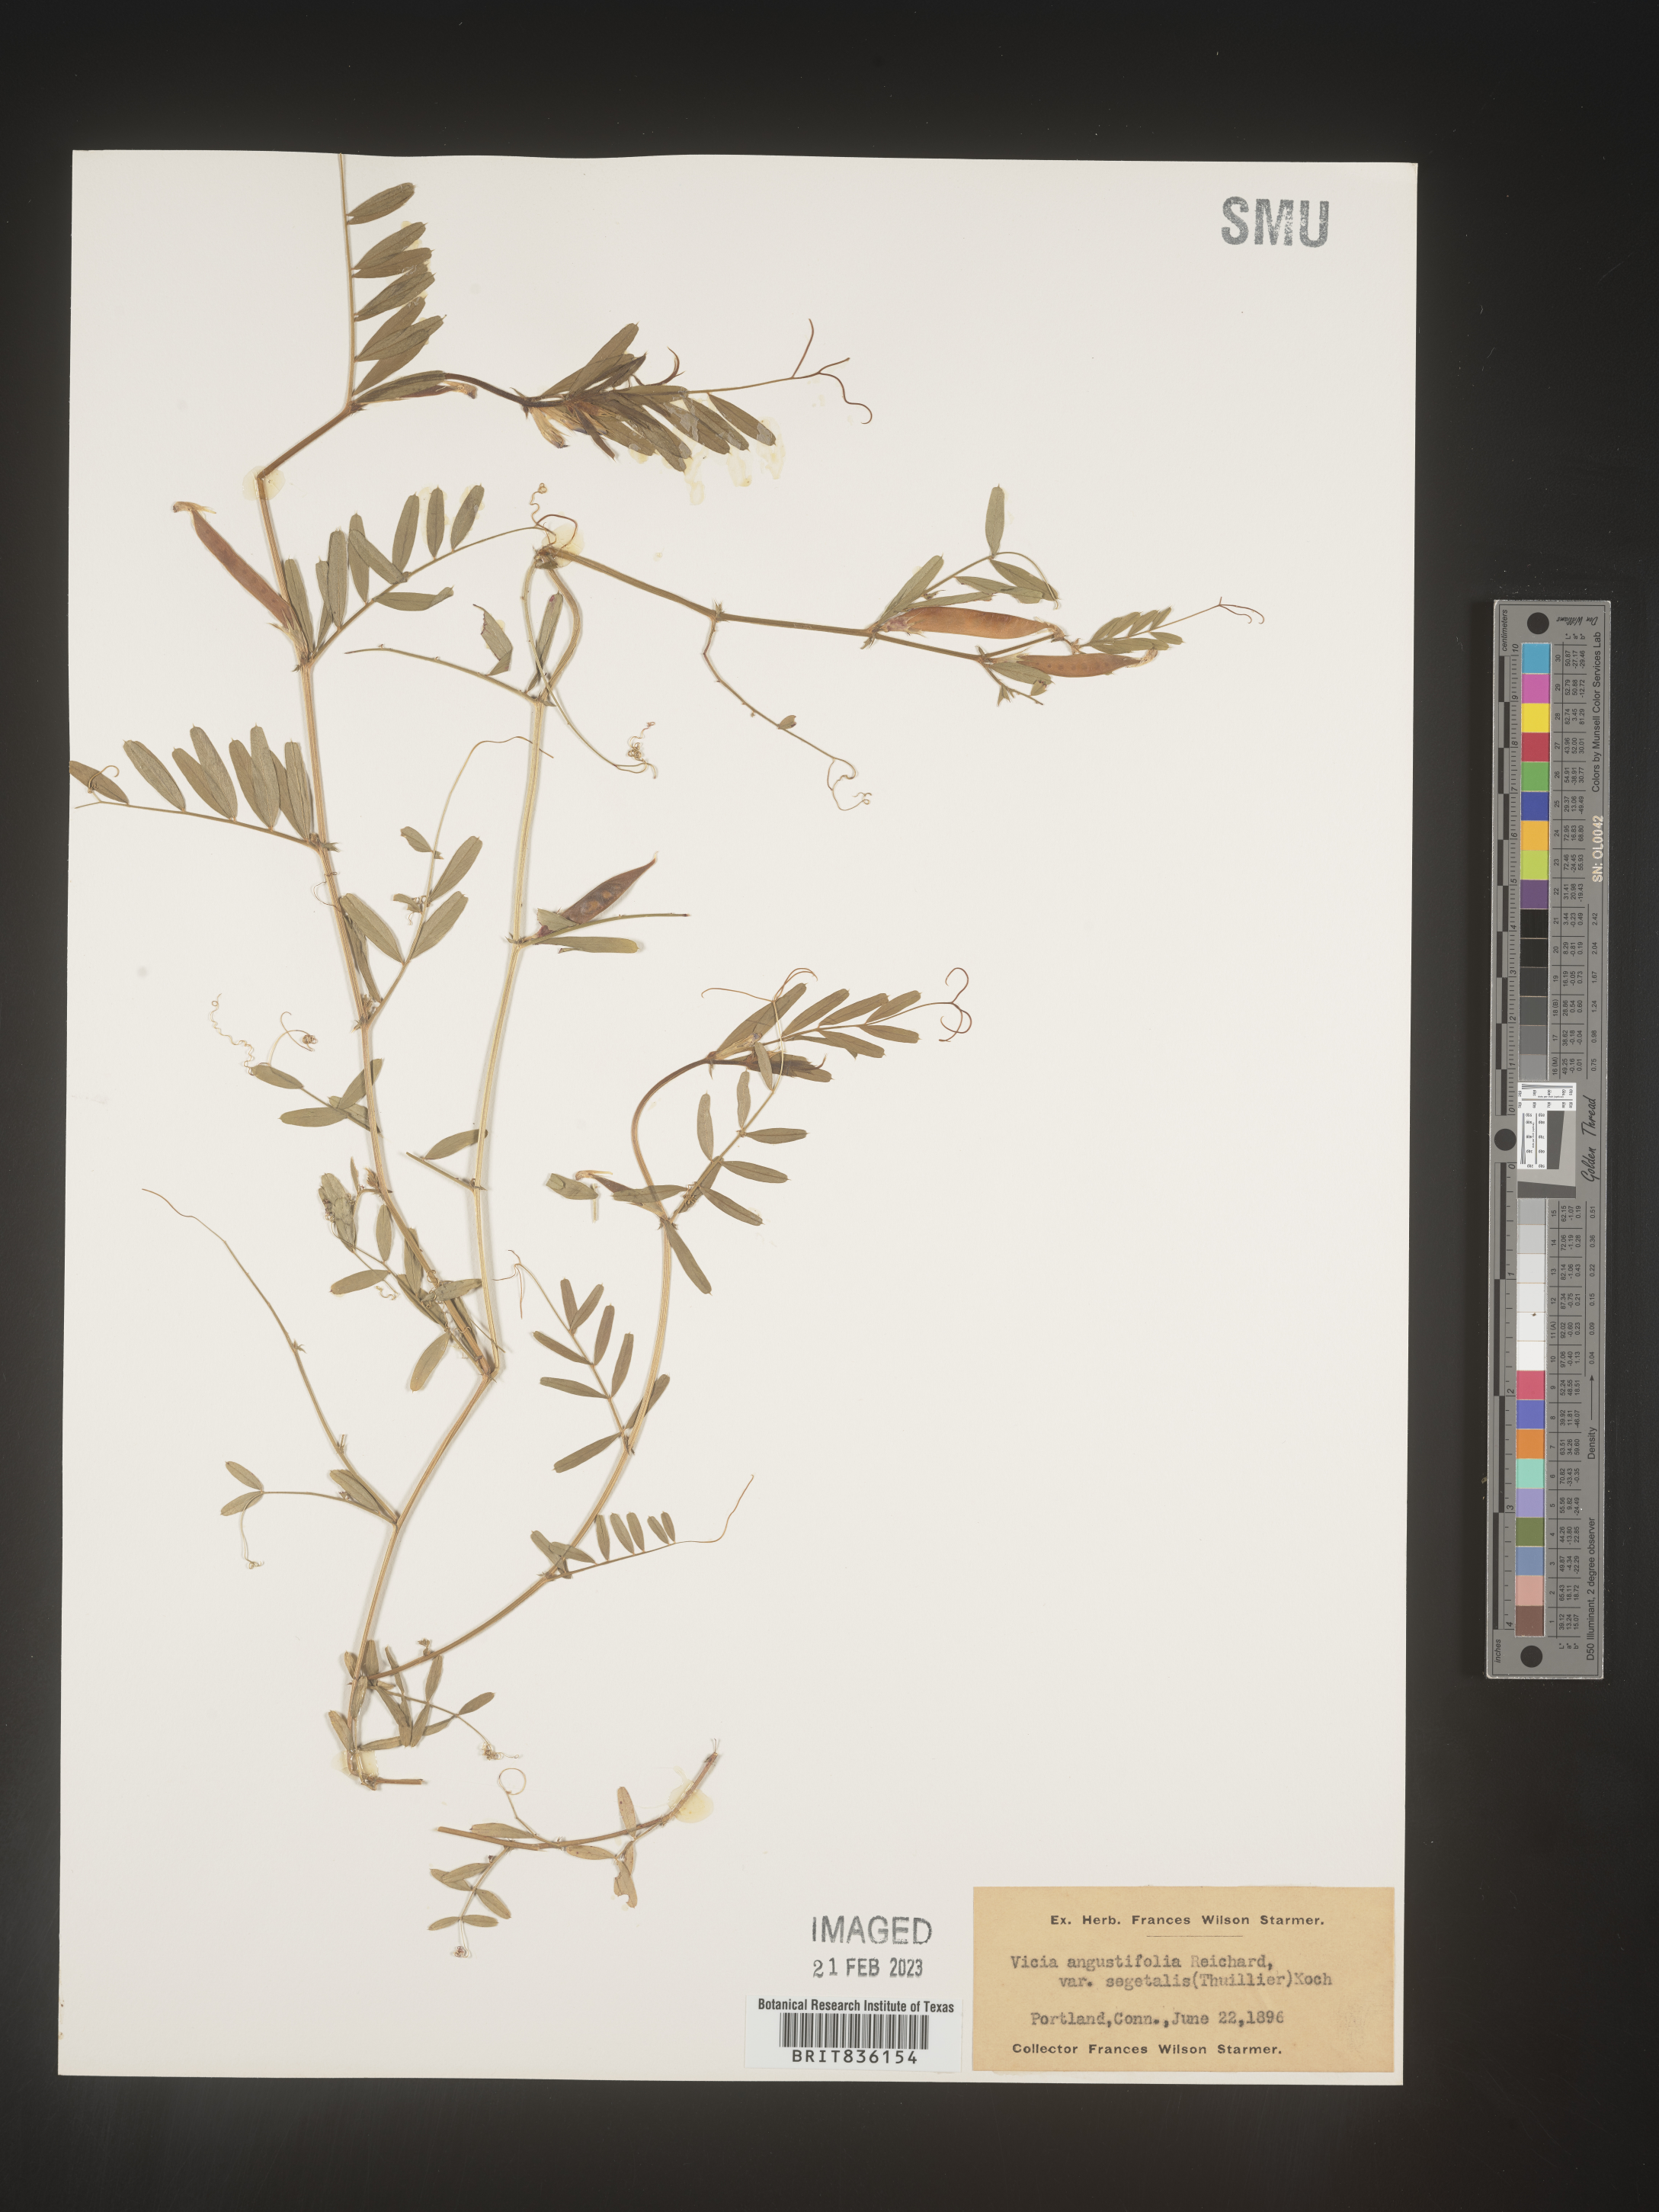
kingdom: Plantae
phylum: Tracheophyta
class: Magnoliopsida
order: Fabales
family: Fabaceae
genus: Vicia
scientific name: Vicia sativa
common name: Garden vetch
